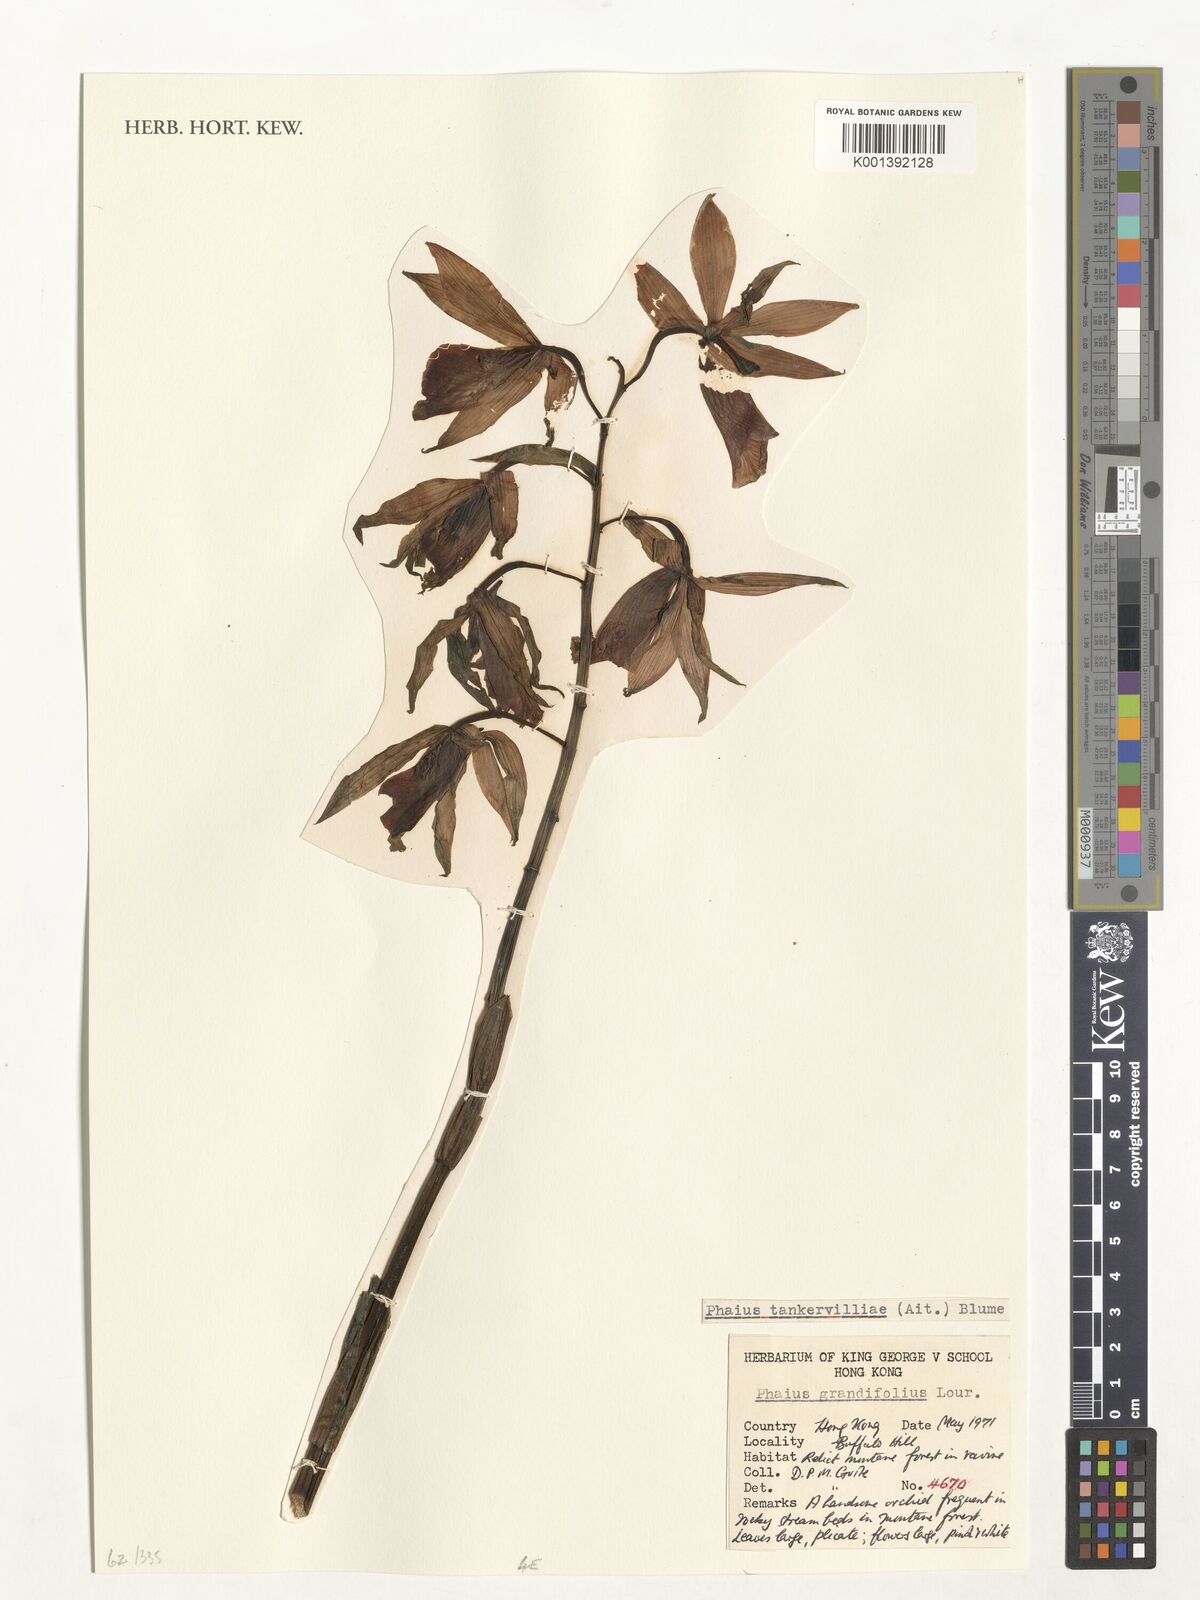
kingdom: Plantae
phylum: Tracheophyta
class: Liliopsida
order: Asparagales
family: Orchidaceae
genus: Calanthe
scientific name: Calanthe tankervilleae
